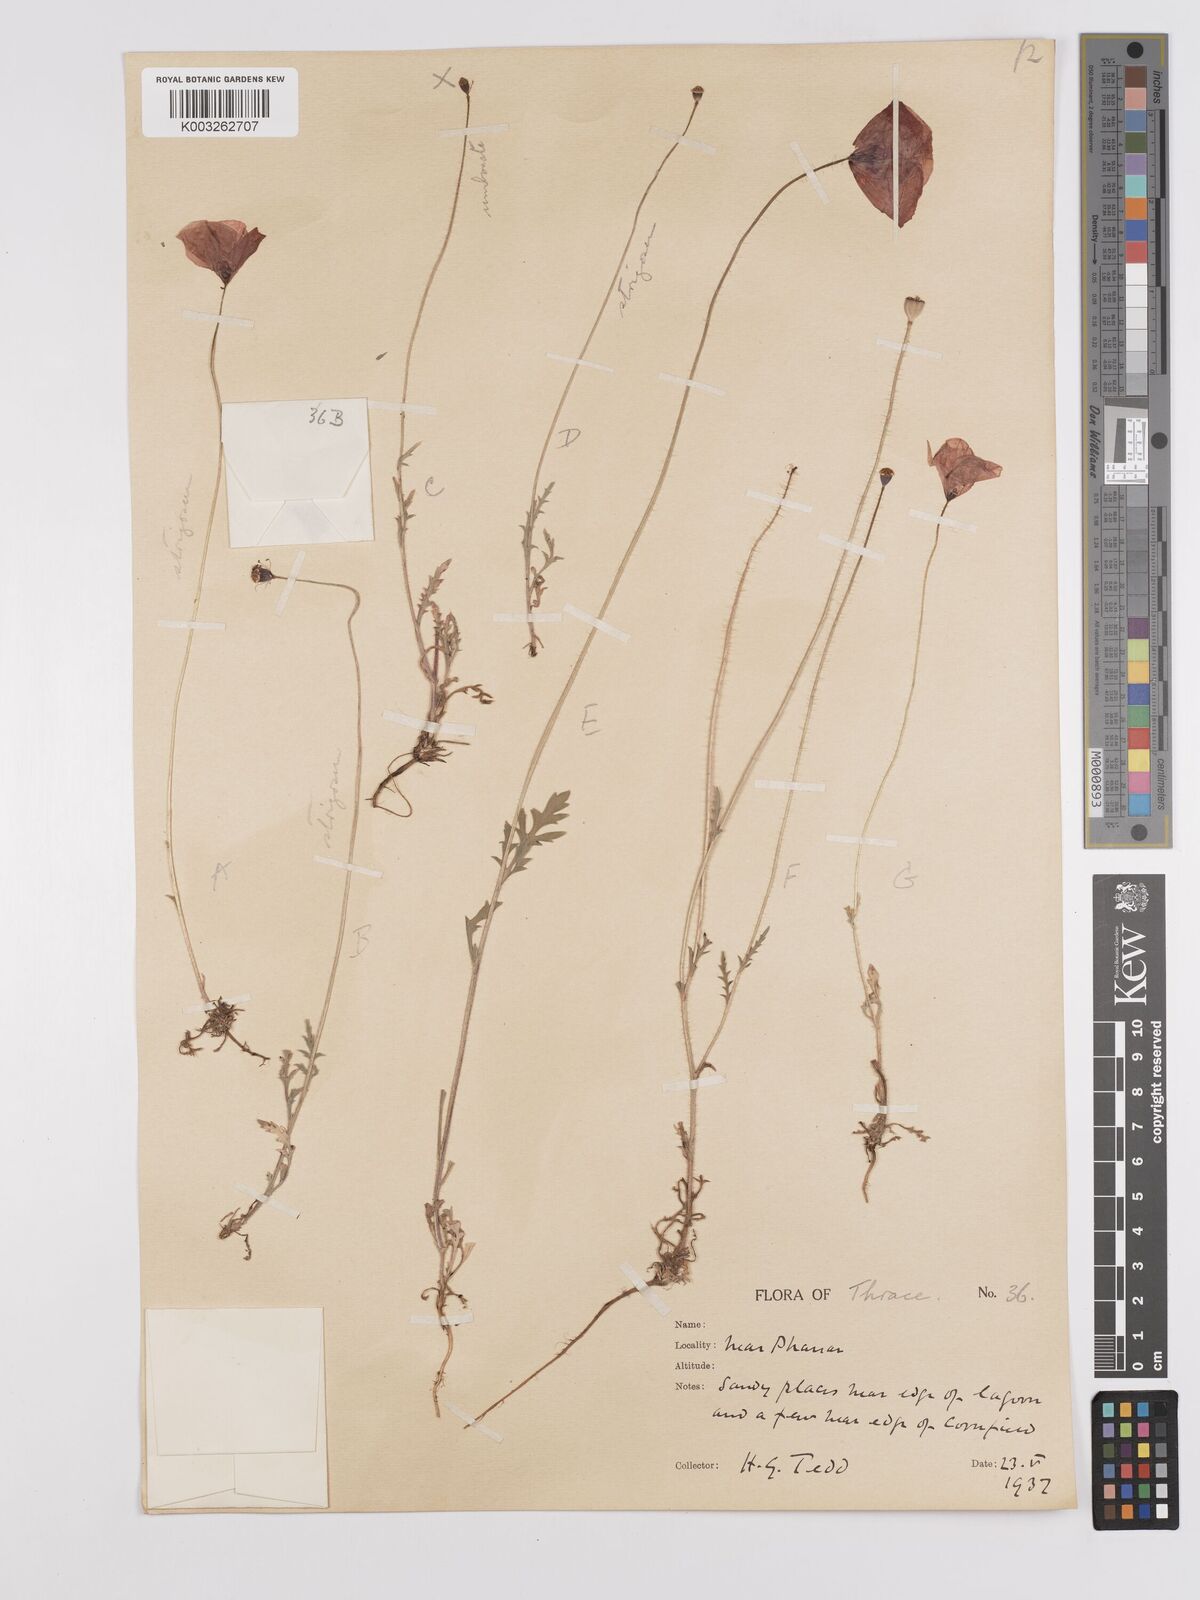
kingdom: Plantae
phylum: Tracheophyta
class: Magnoliopsida
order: Ranunculales
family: Papaveraceae
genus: Papaver
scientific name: Papaver
